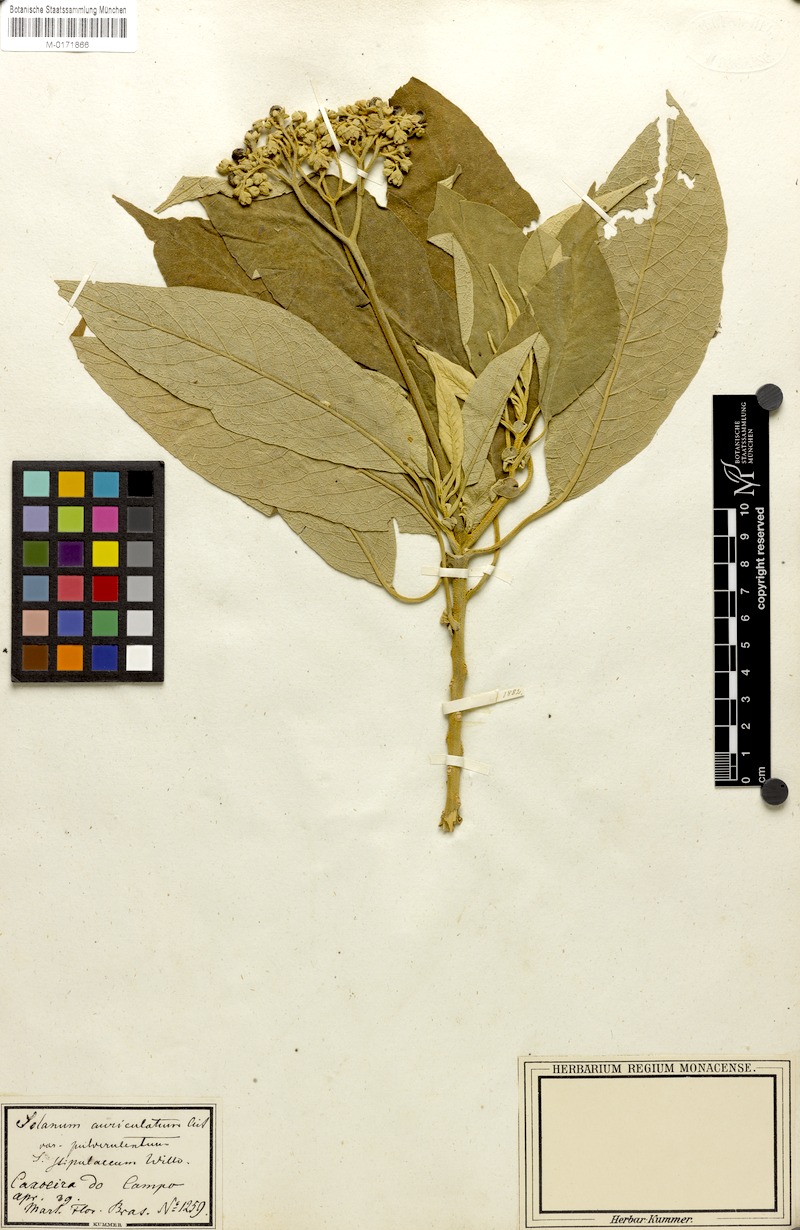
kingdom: Plantae
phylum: Tracheophyta
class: Magnoliopsida
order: Solanales
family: Solanaceae
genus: Solanum
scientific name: Solanum granulosoleprosum
